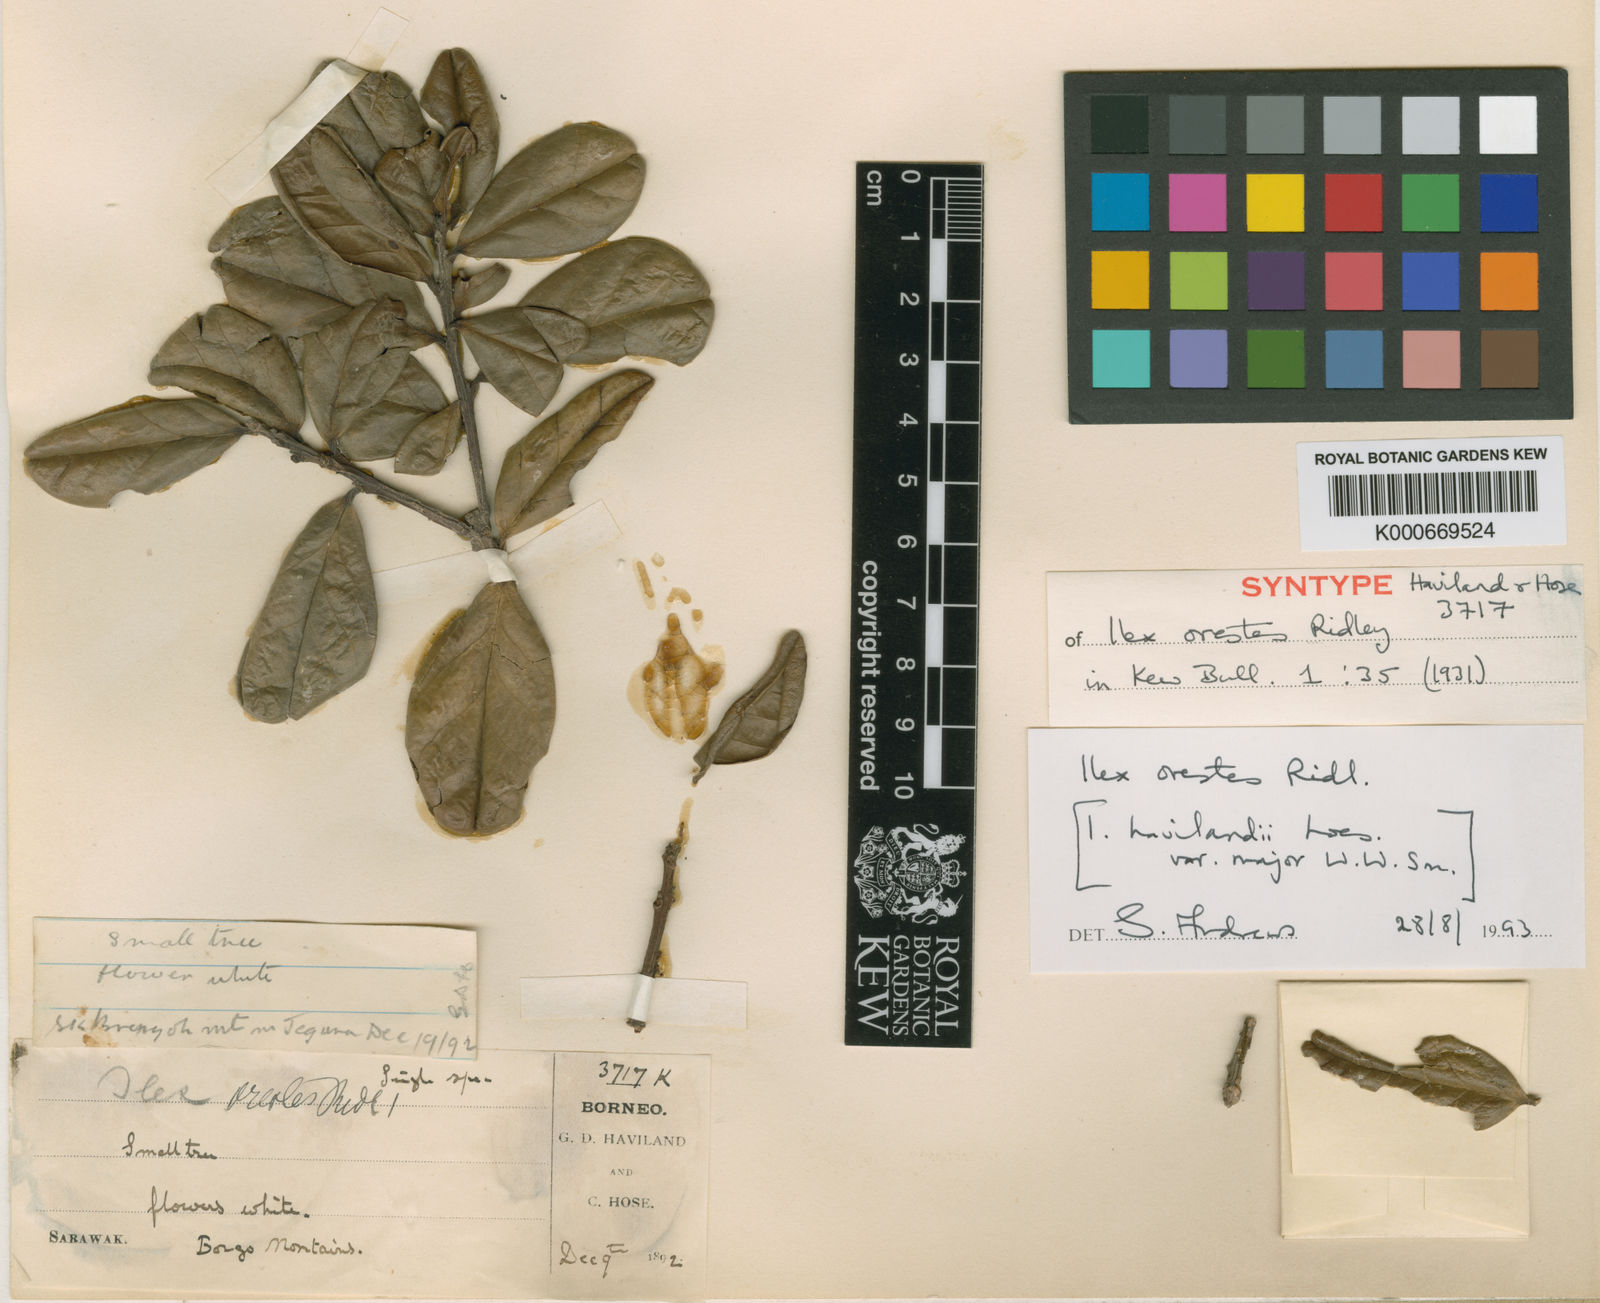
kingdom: Plantae
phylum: Tracheophyta
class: Magnoliopsida
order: Aquifoliales
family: Aquifoliaceae
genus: Ilex
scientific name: Ilex havilandii
